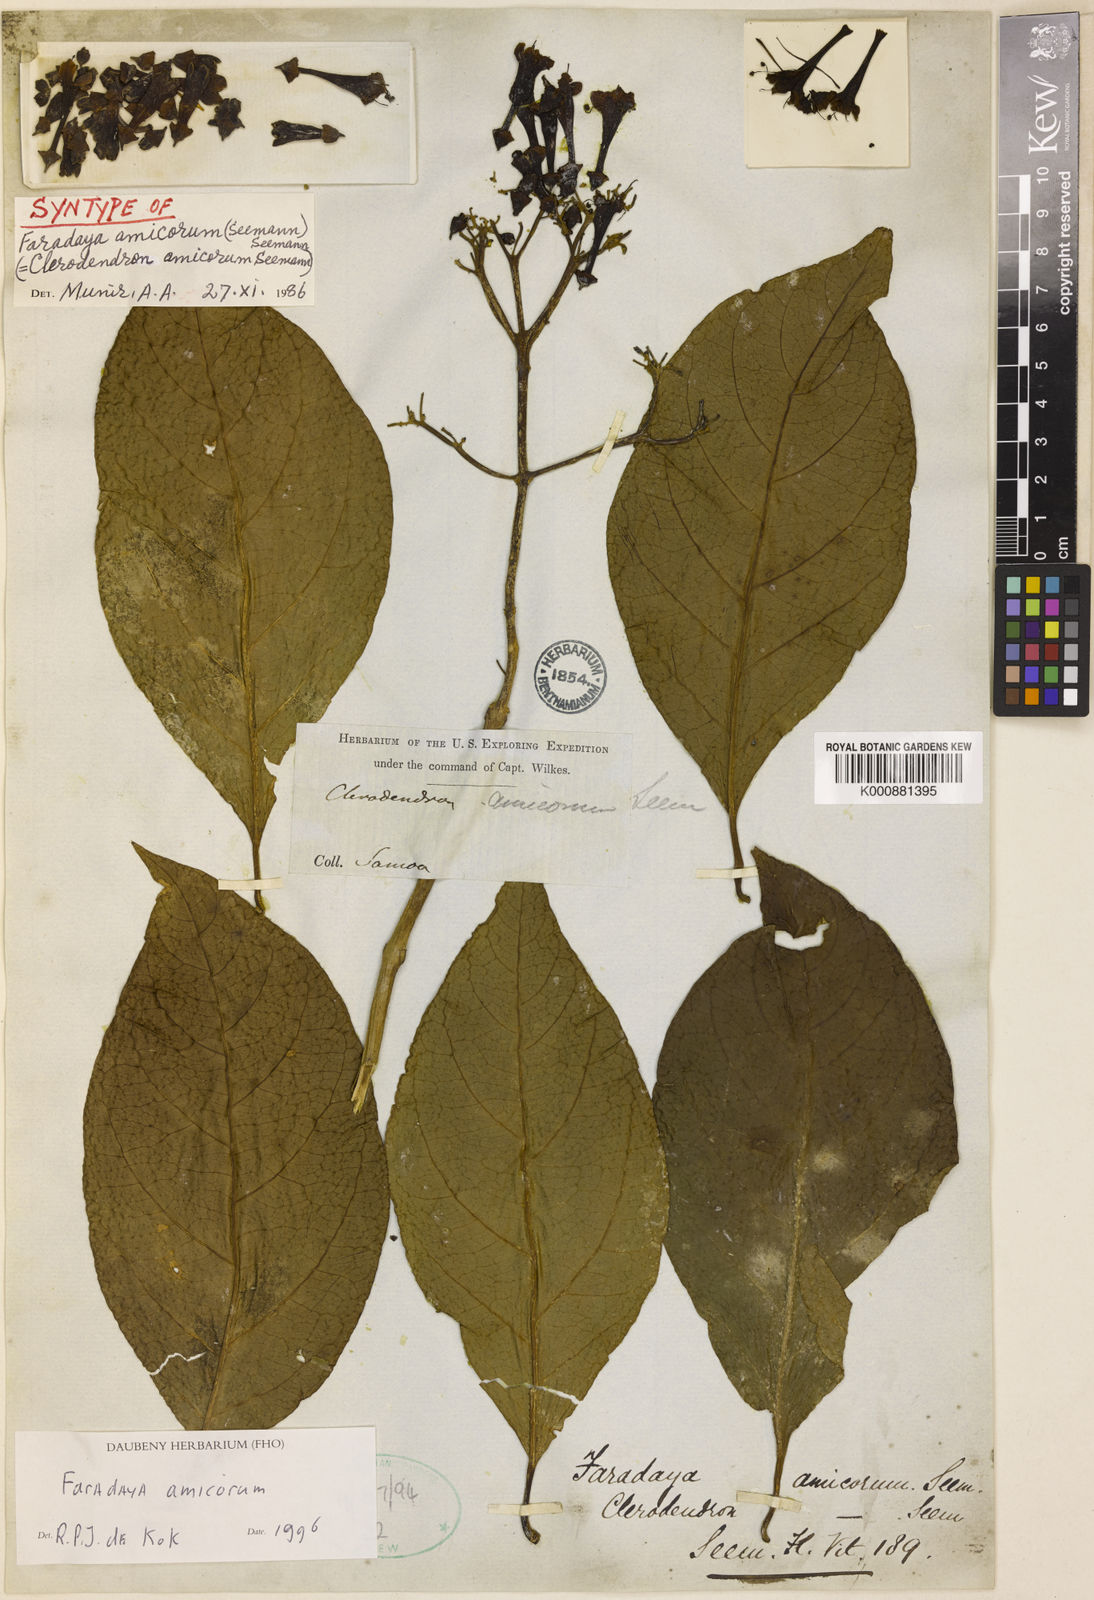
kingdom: Plantae
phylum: Tracheophyta
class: Magnoliopsida
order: Lamiales
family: Lamiaceae
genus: Oxera
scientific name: Oxera amicorum
